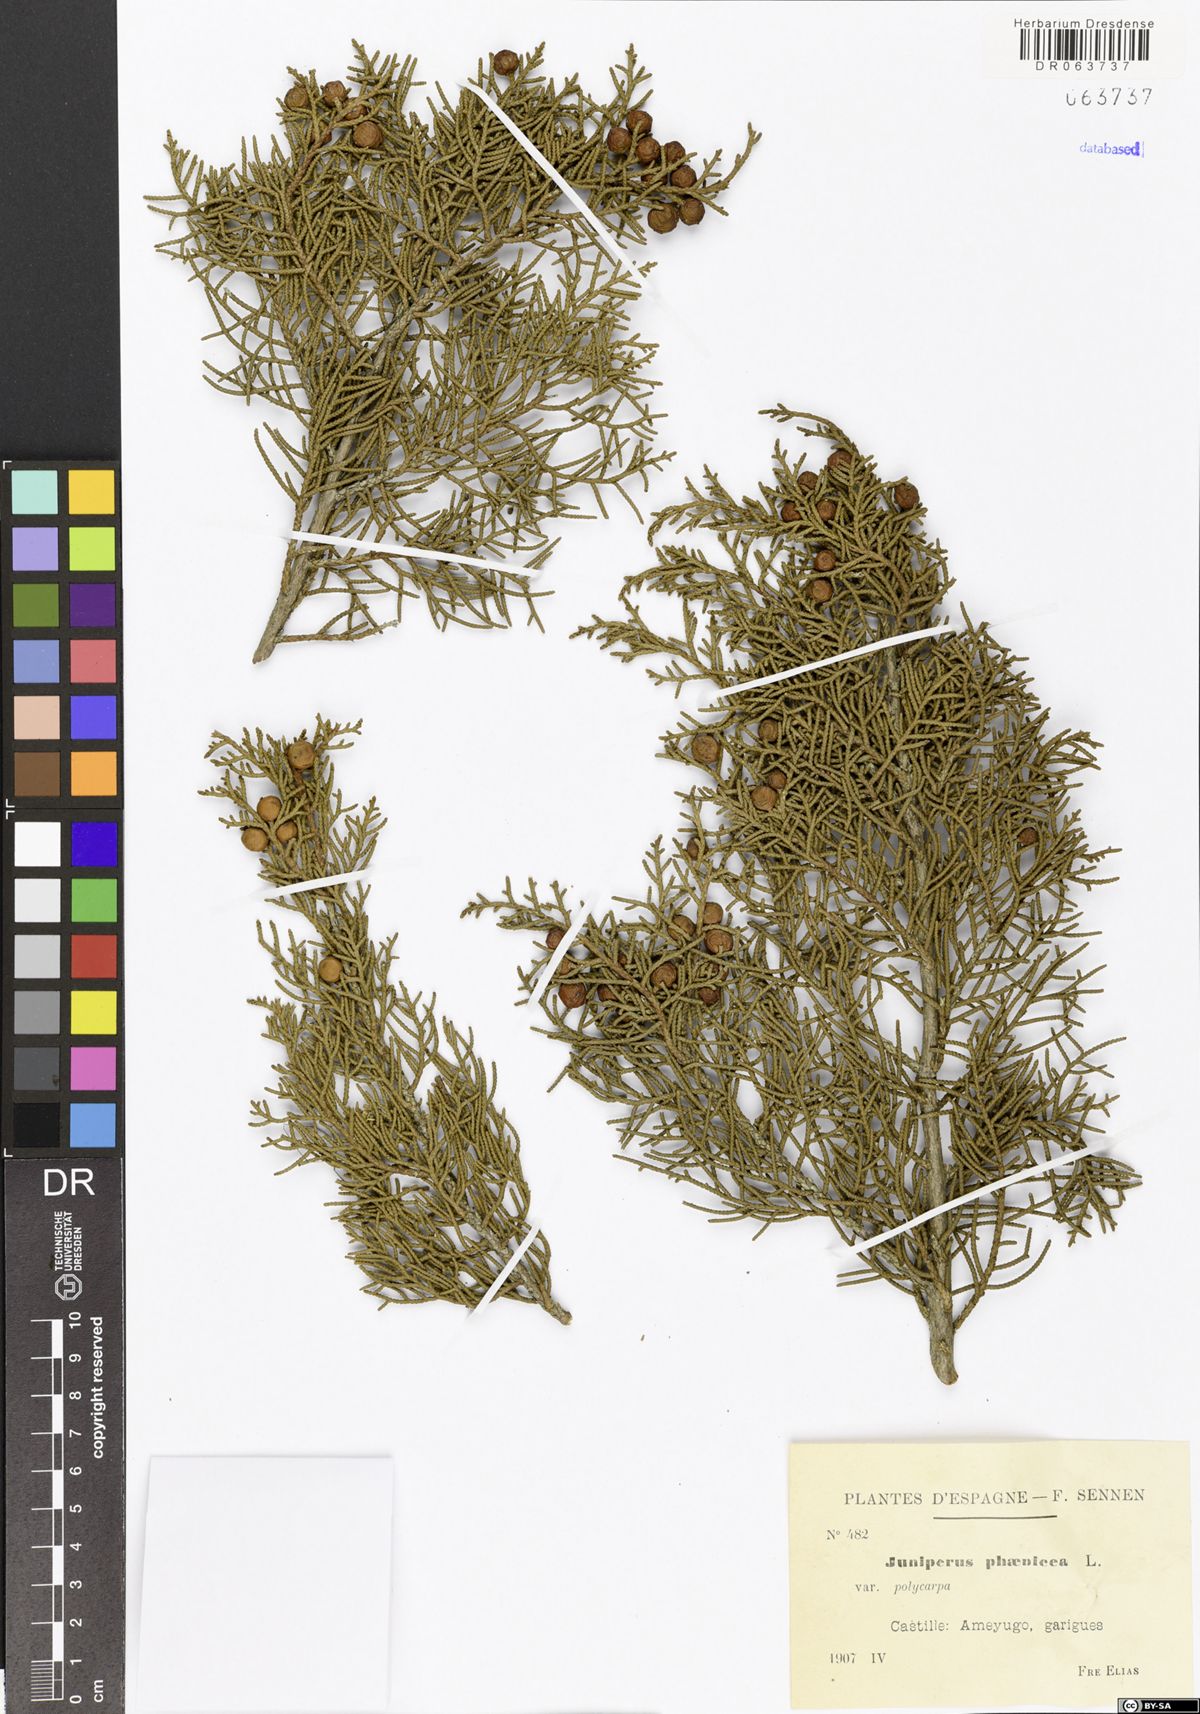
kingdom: Plantae
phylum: Tracheophyta
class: Pinopsida
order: Pinales
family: Cupressaceae
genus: Juniperus
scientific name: Juniperus phoenicea
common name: Phoenician juniper
